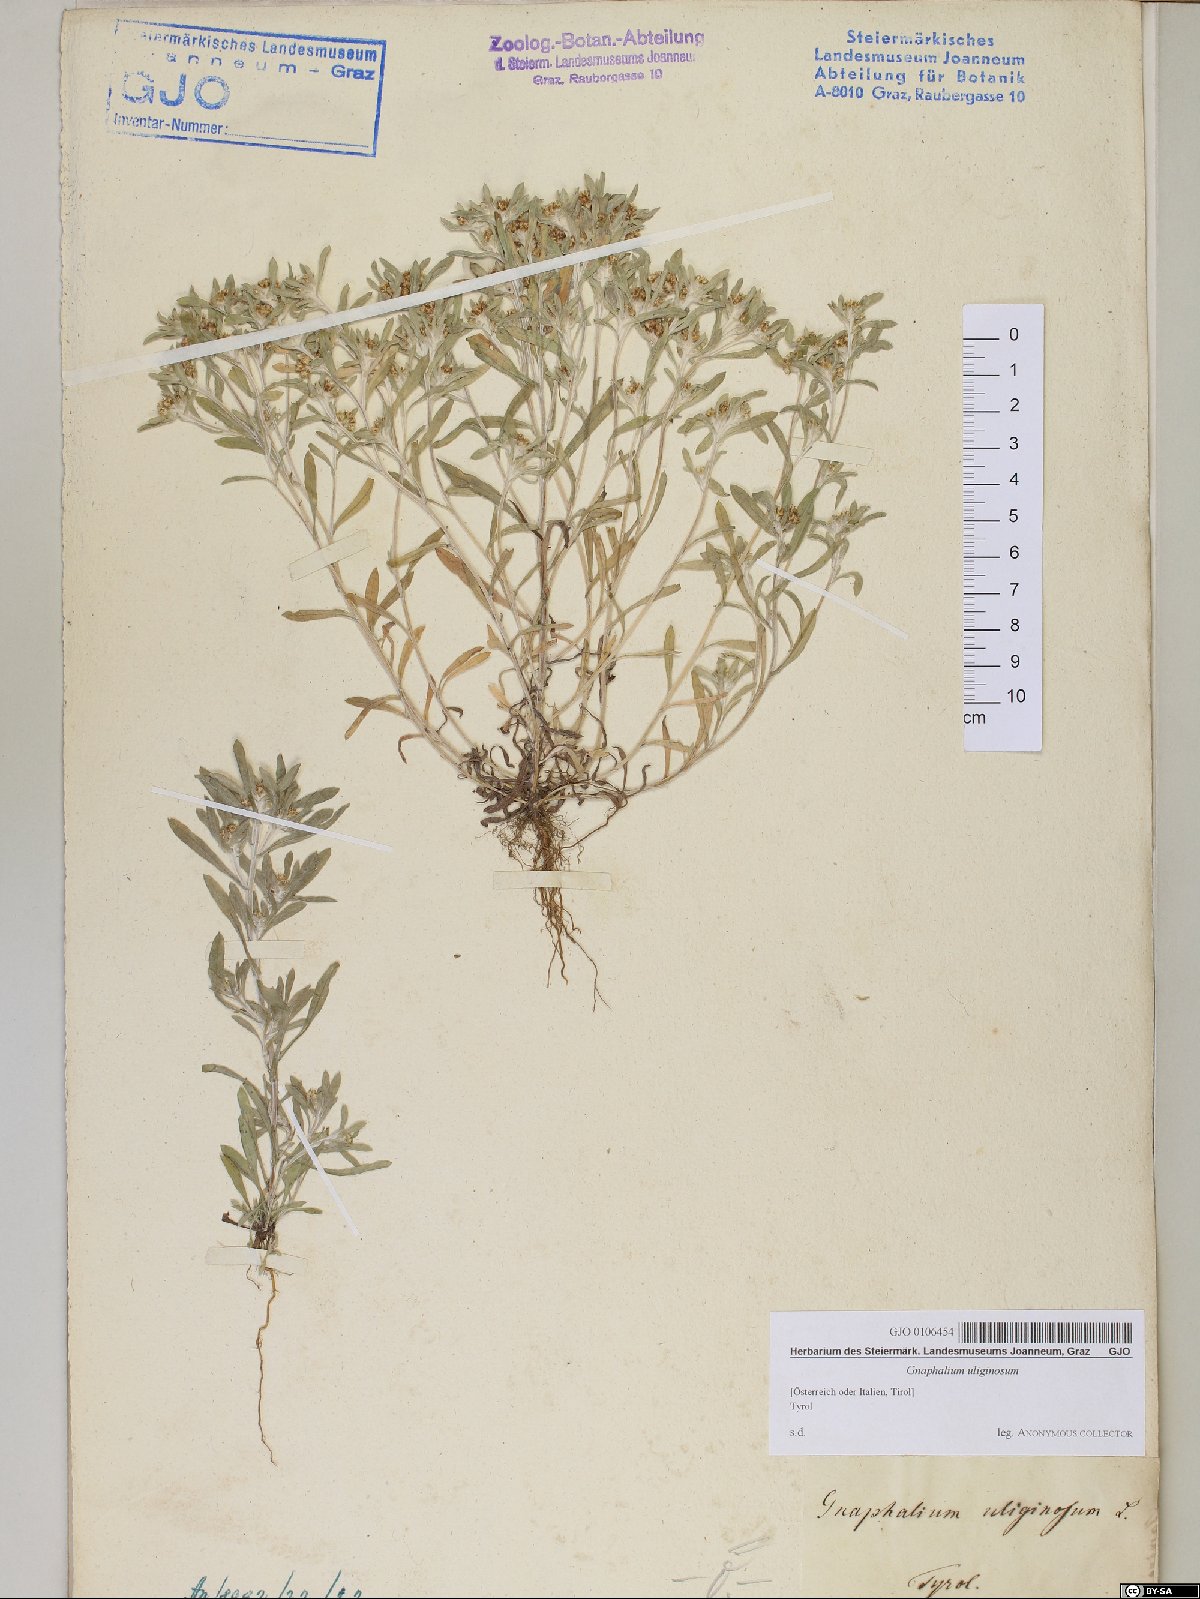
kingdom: Plantae
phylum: Tracheophyta
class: Magnoliopsida
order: Asterales
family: Asteraceae
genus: Gnaphalium
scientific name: Gnaphalium uliginosum
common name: Marsh cudweed
